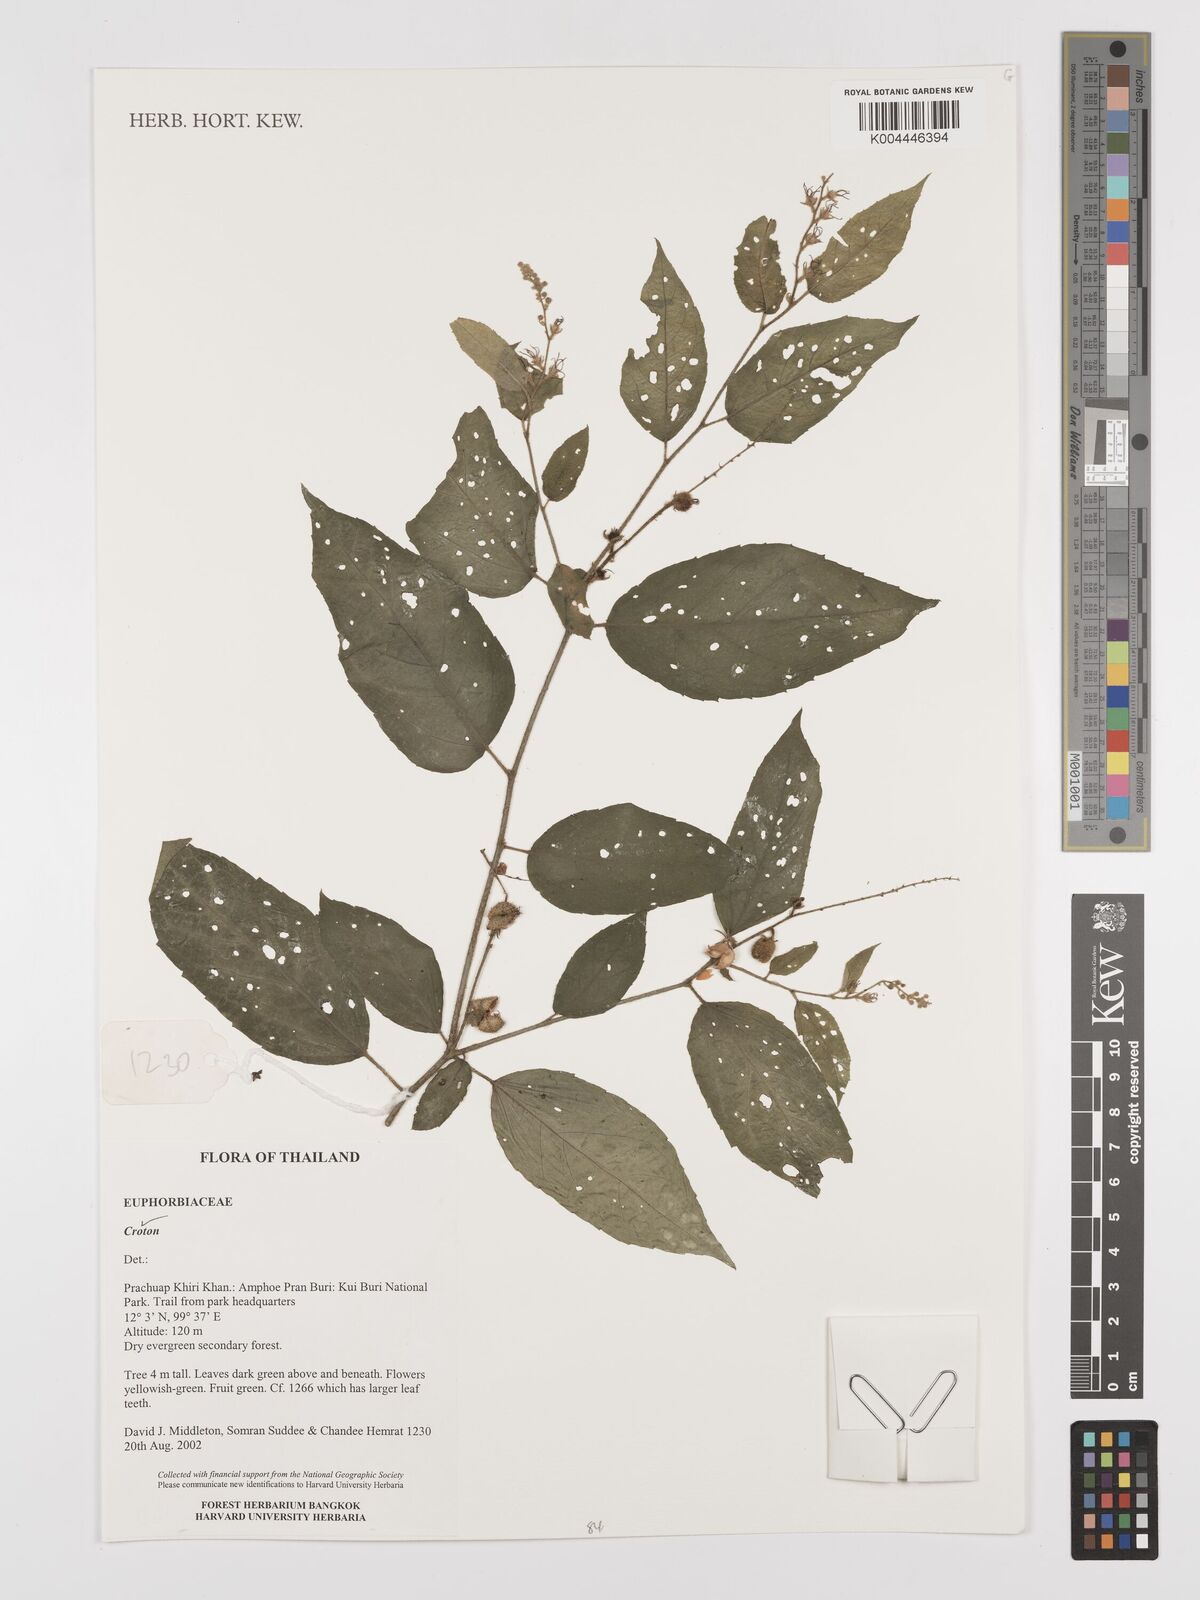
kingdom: Plantae
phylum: Tracheophyta
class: Magnoliopsida
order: Malpighiales
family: Euphorbiaceae
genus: Croton
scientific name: Croton
